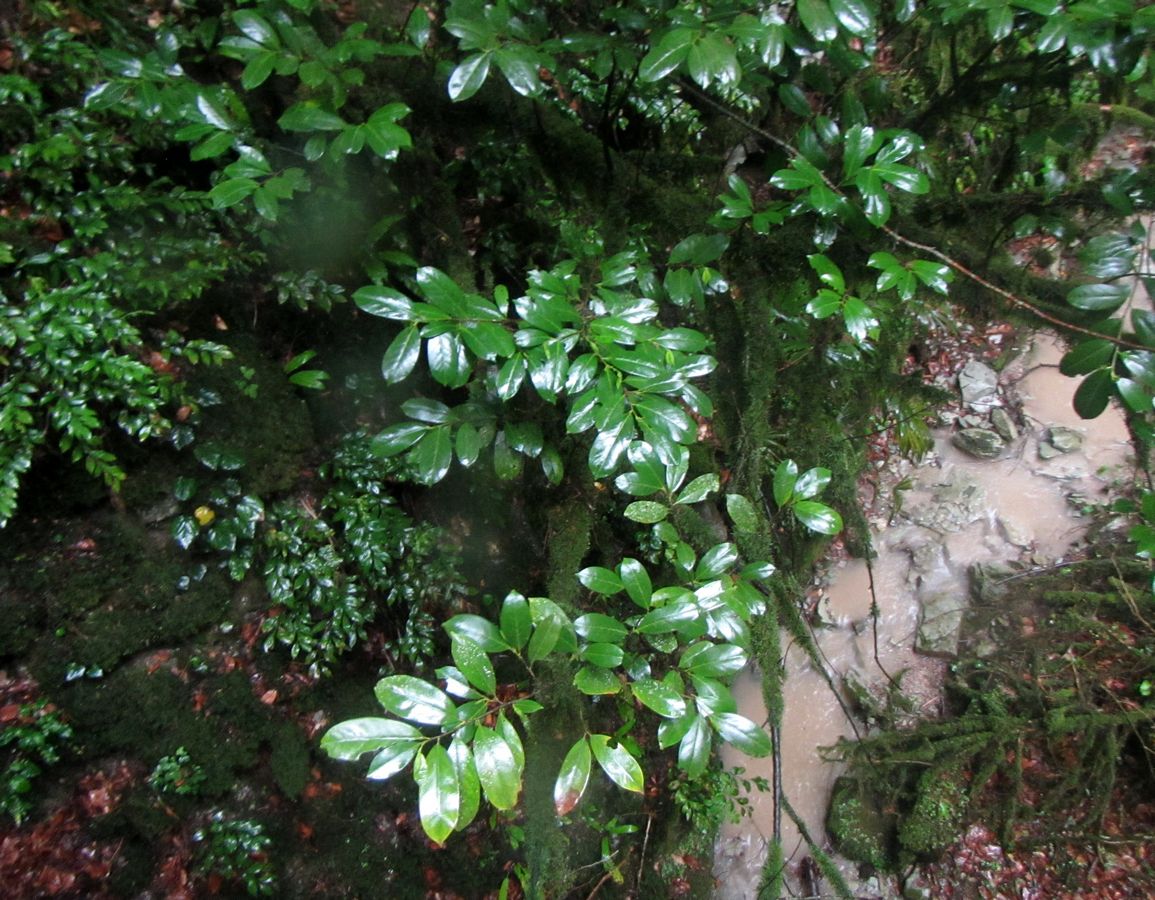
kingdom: Plantae
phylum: Tracheophyta
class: Magnoliopsida
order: Rosales
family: Rosaceae
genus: Prunus
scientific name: Prunus laurocerasus
